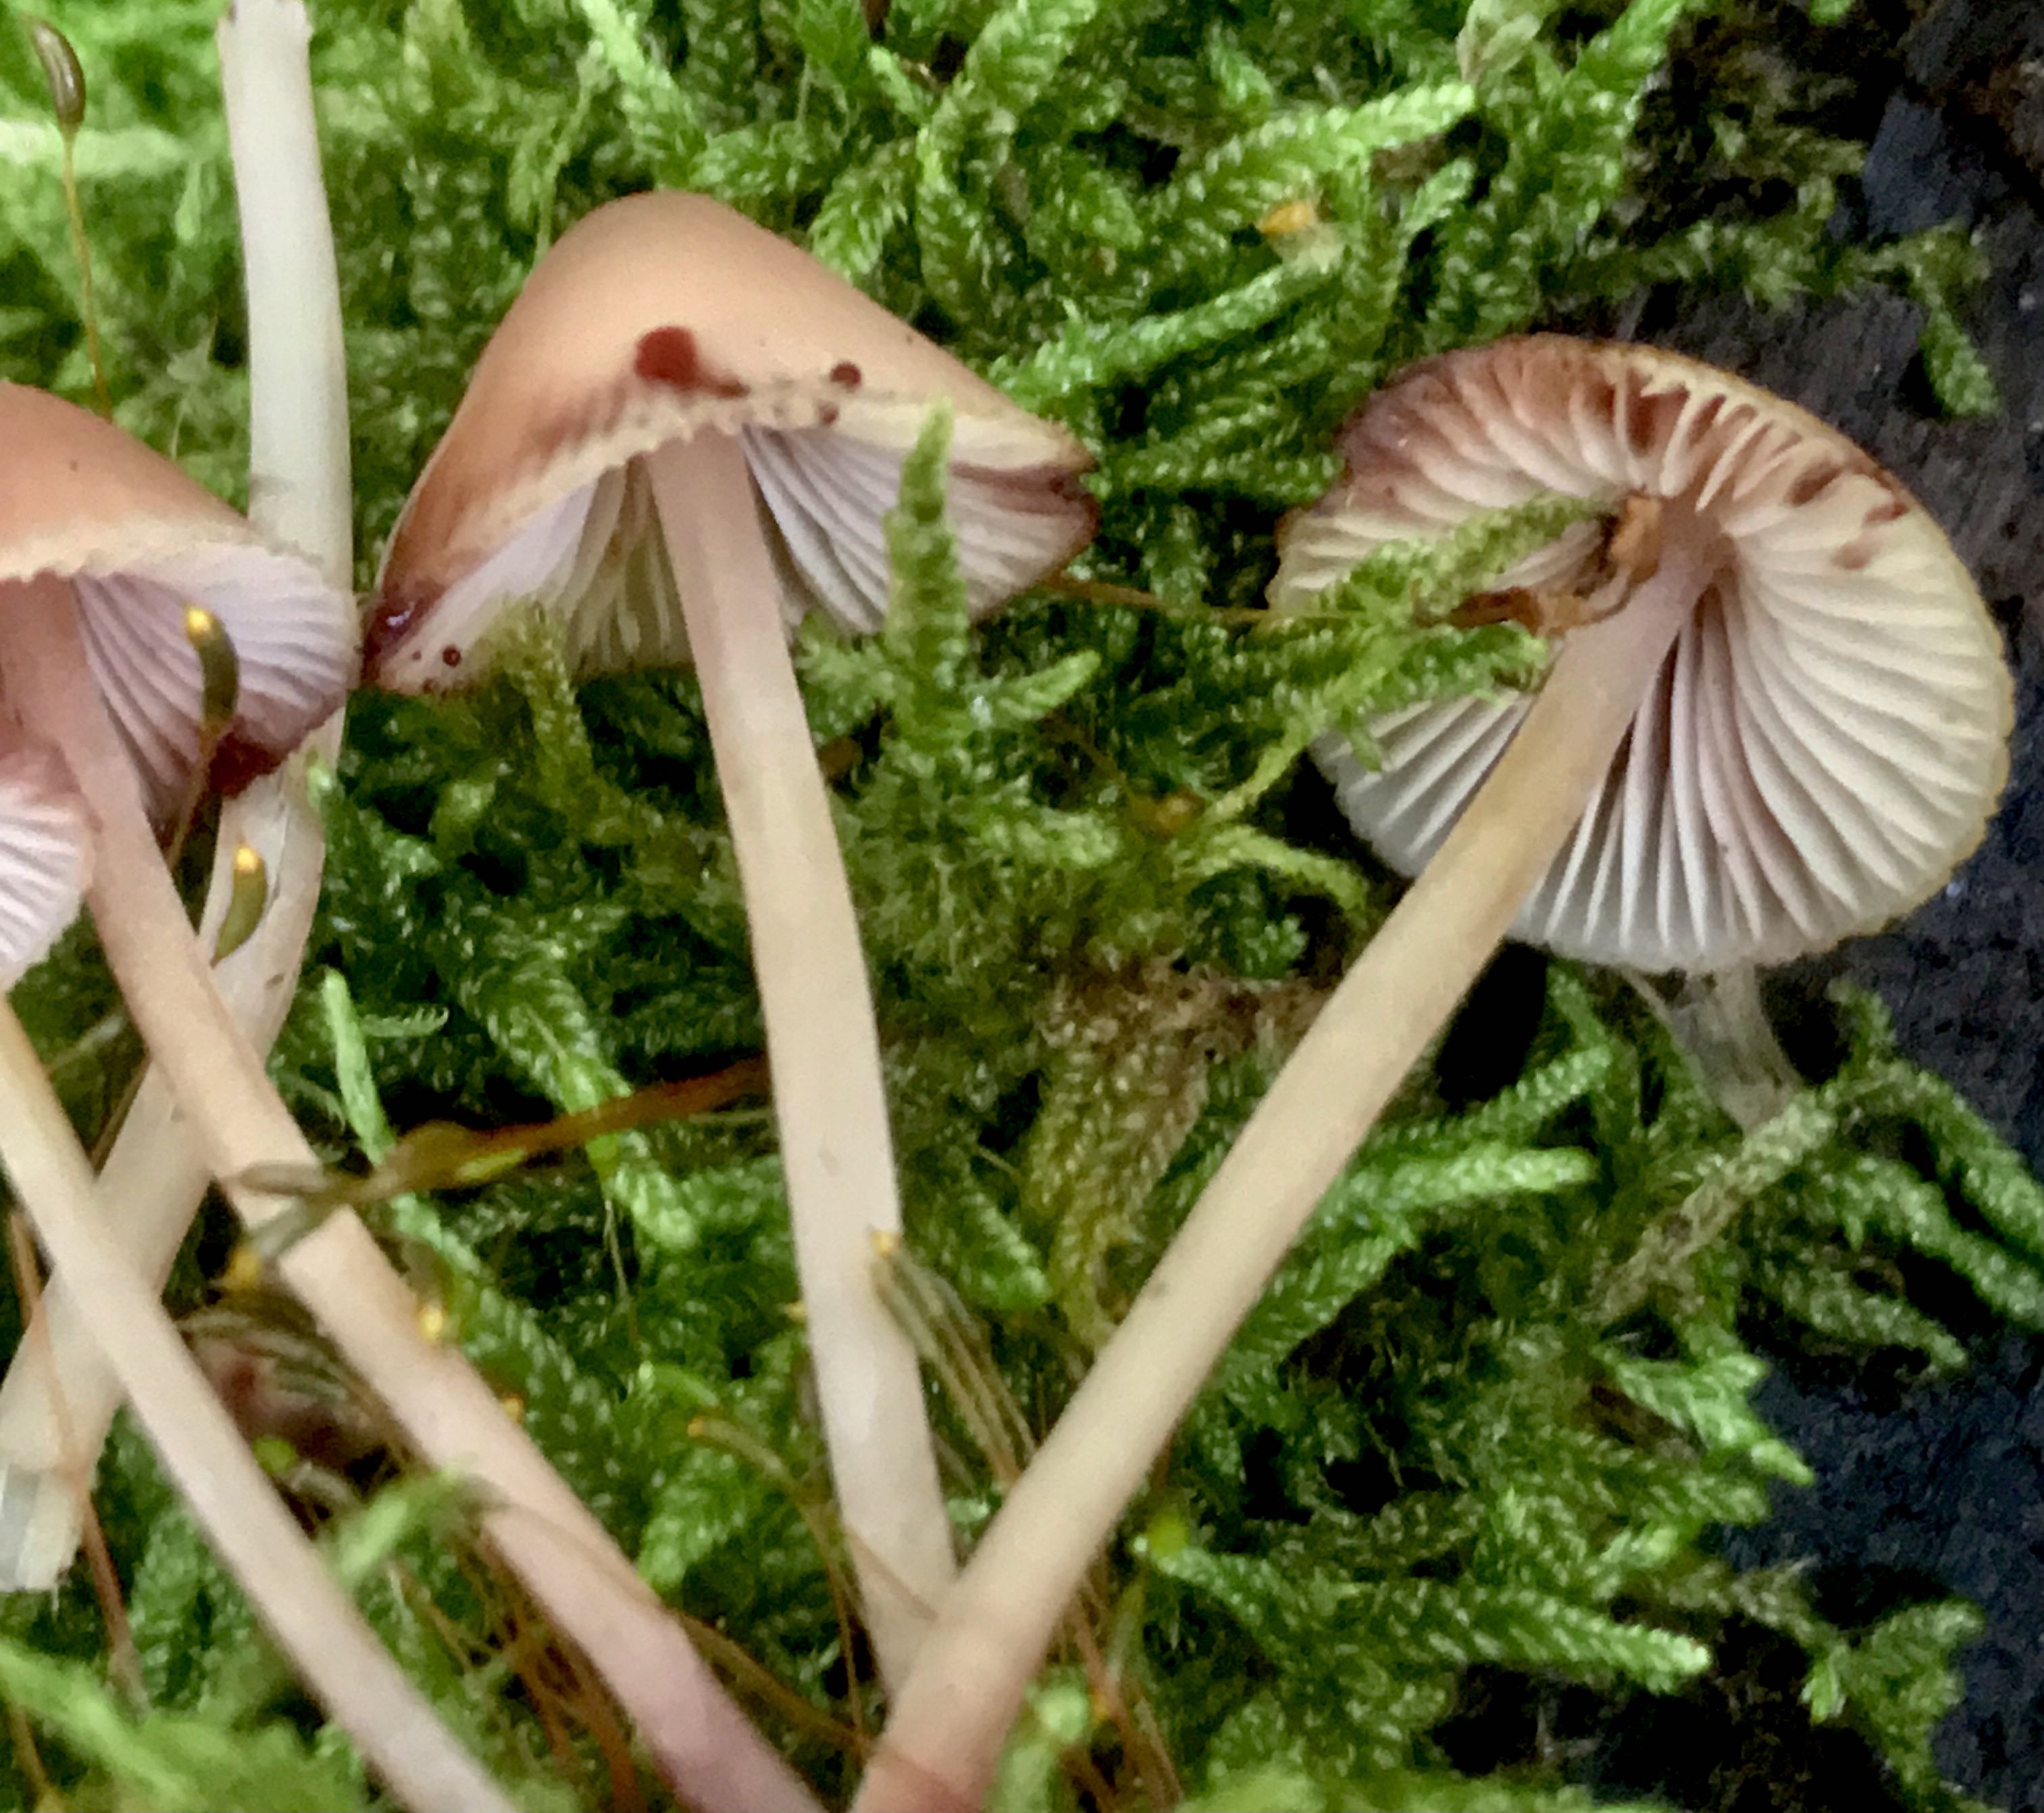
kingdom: Fungi
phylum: Basidiomycota
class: Agaricomycetes
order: Agaricales
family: Mycenaceae
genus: Mycena
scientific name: Mycena haematopus
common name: blødende huesvamp
